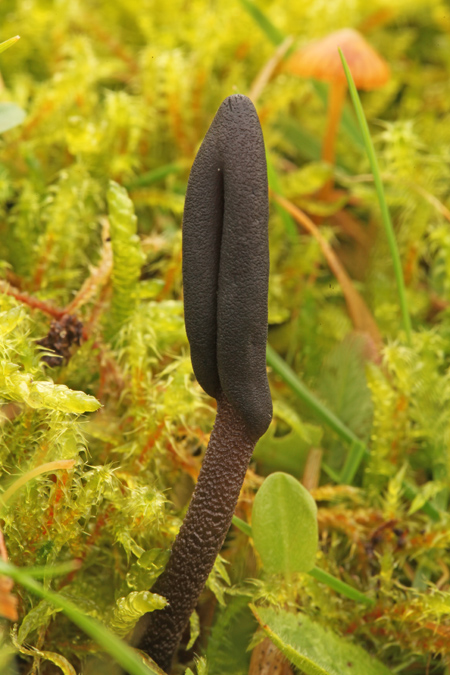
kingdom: Fungi
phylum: Ascomycota
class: Geoglossomycetes
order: Geoglossales
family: Geoglossaceae
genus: Geoglossum
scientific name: Geoglossum fallax
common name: småskællet jordtunge
